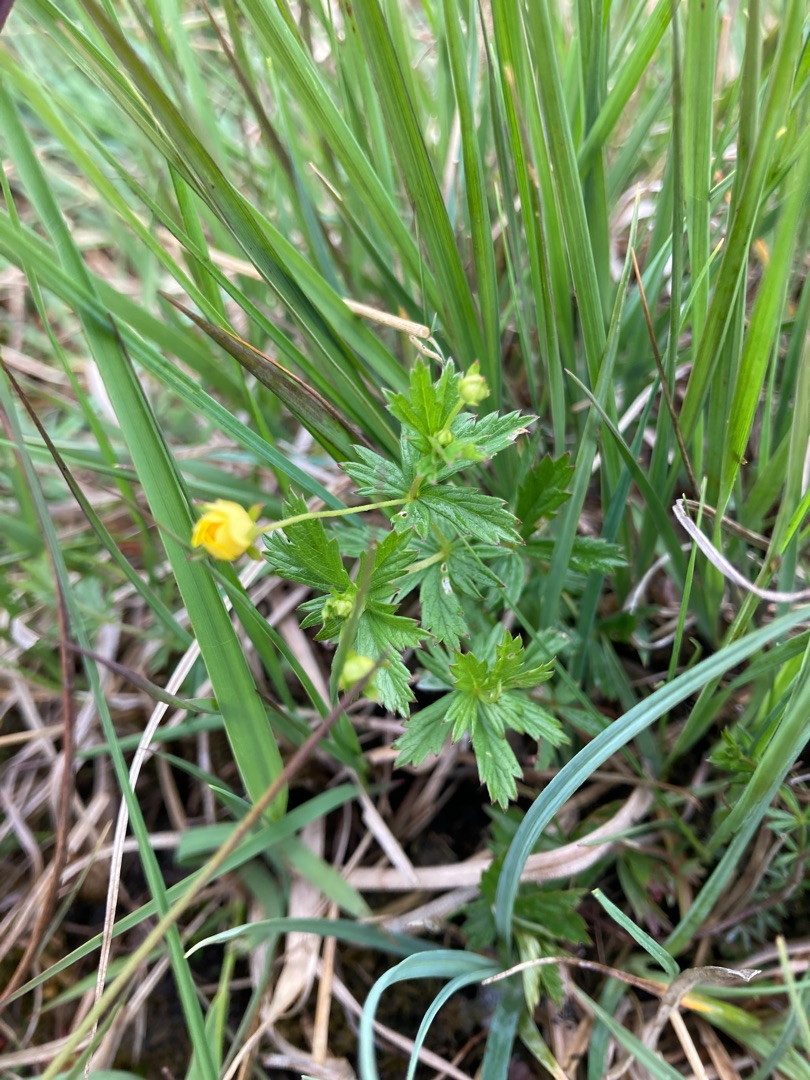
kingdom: Plantae
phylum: Tracheophyta
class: Magnoliopsida
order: Rosales
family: Rosaceae
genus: Potentilla
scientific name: Potentilla erecta
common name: Tormentil
